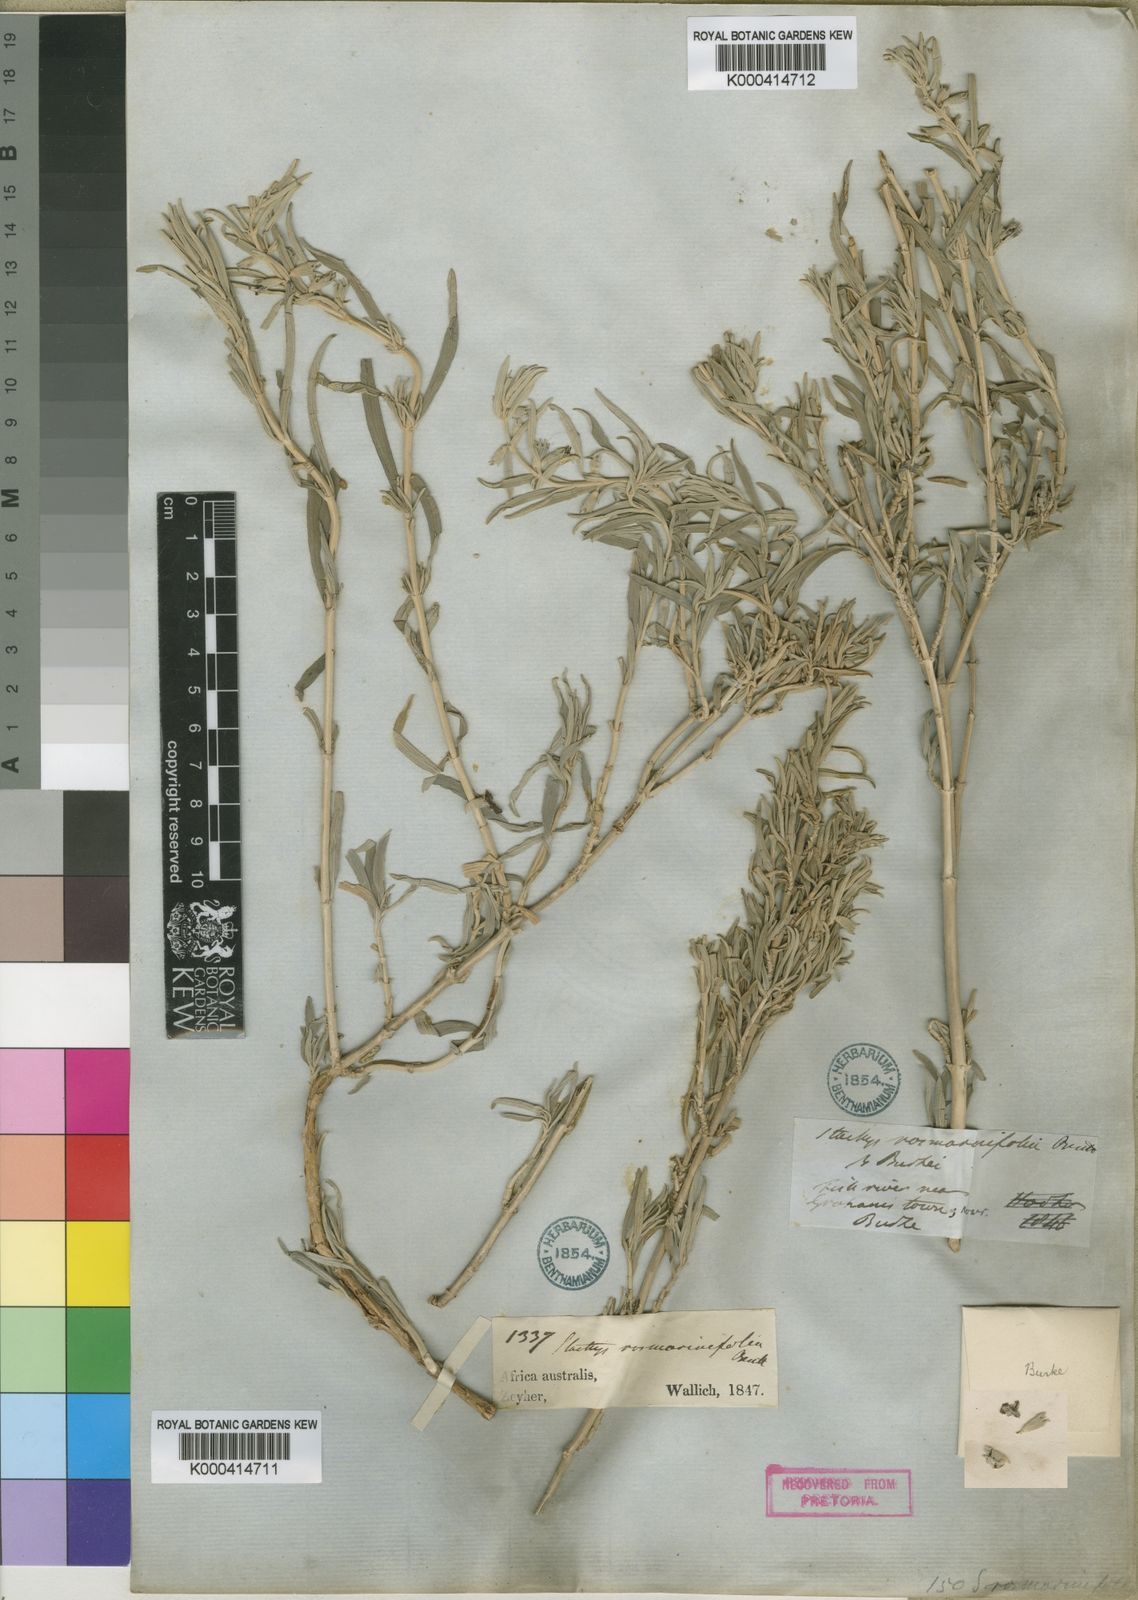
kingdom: Plantae
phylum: Tracheophyta
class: Magnoliopsida
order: Lamiales
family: Lamiaceae
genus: Stachys
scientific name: Stachys rugosa
